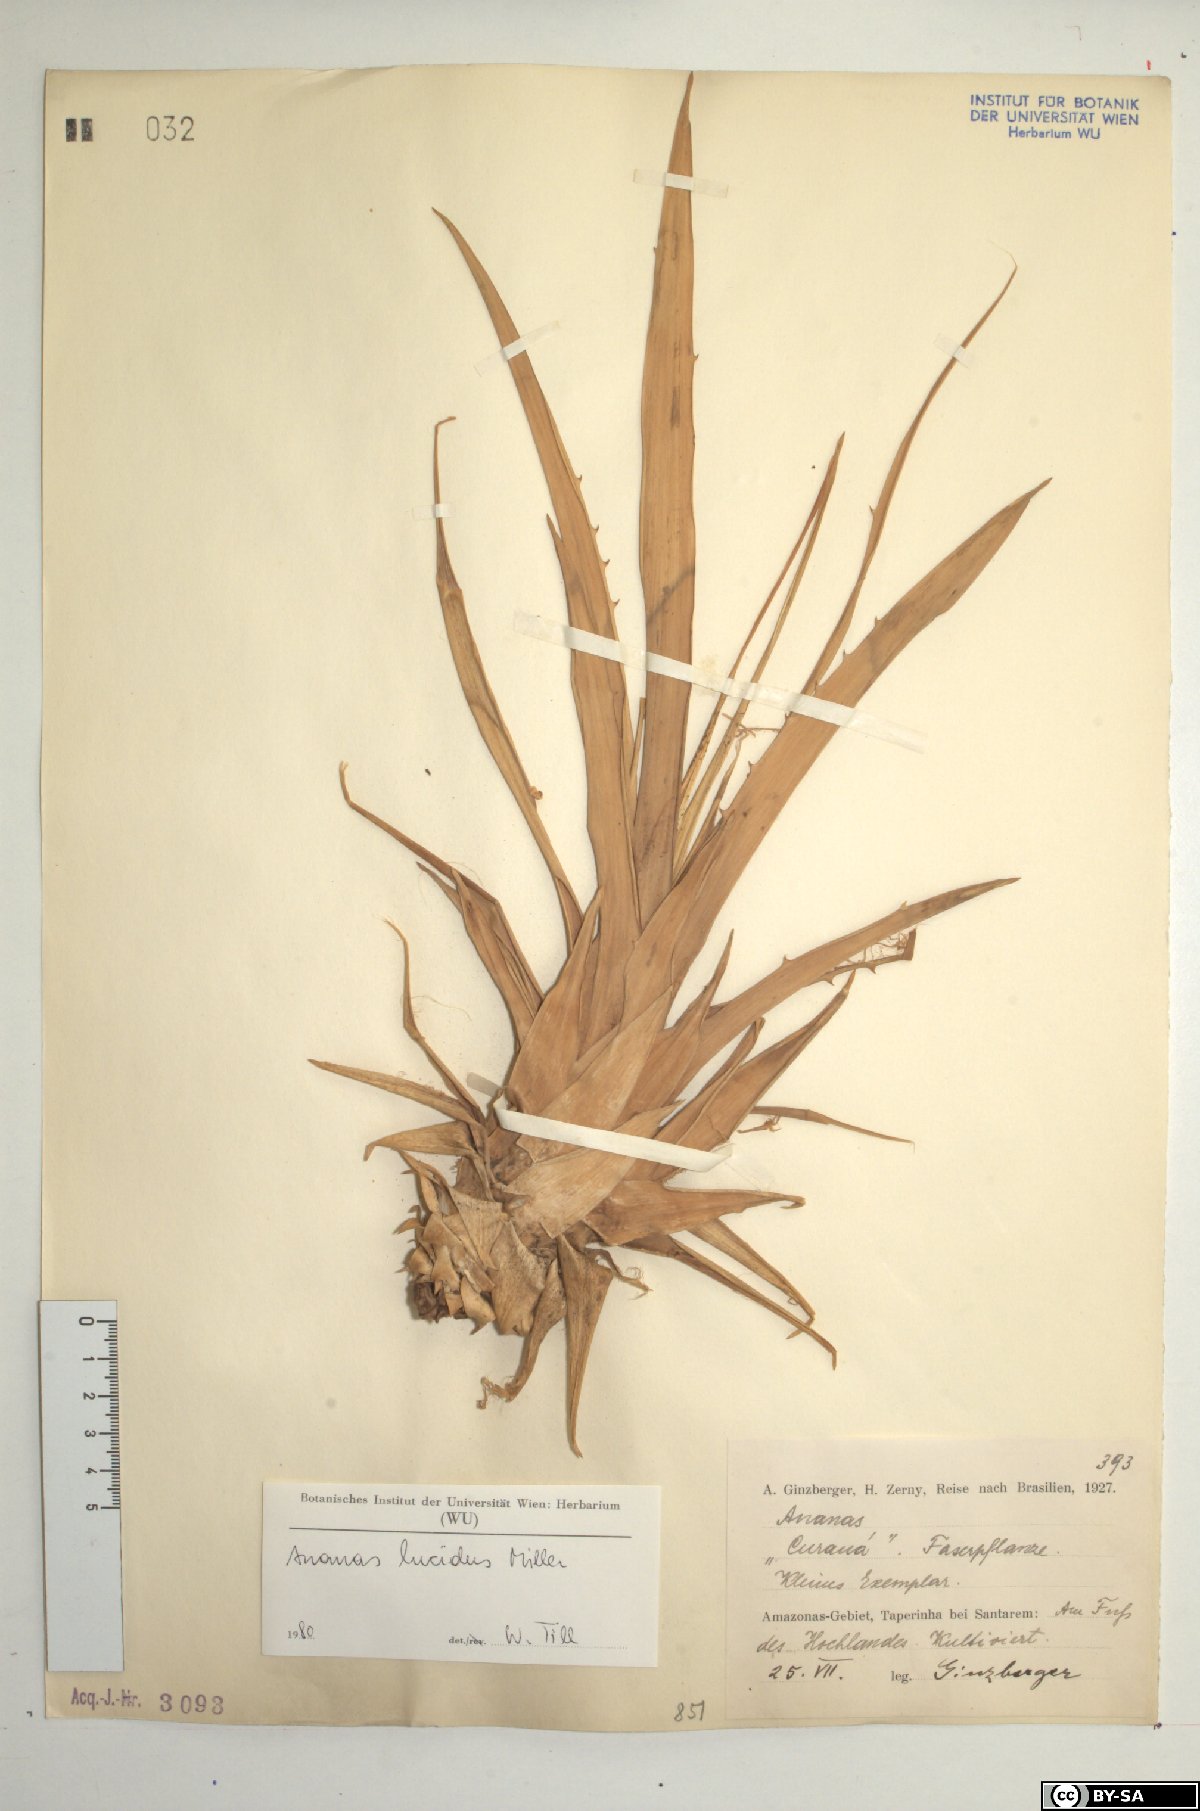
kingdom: Plantae
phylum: Tracheophyta
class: Liliopsida
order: Poales
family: Bromeliaceae
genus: Ananas
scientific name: Ananas comosus
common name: Pineapple
